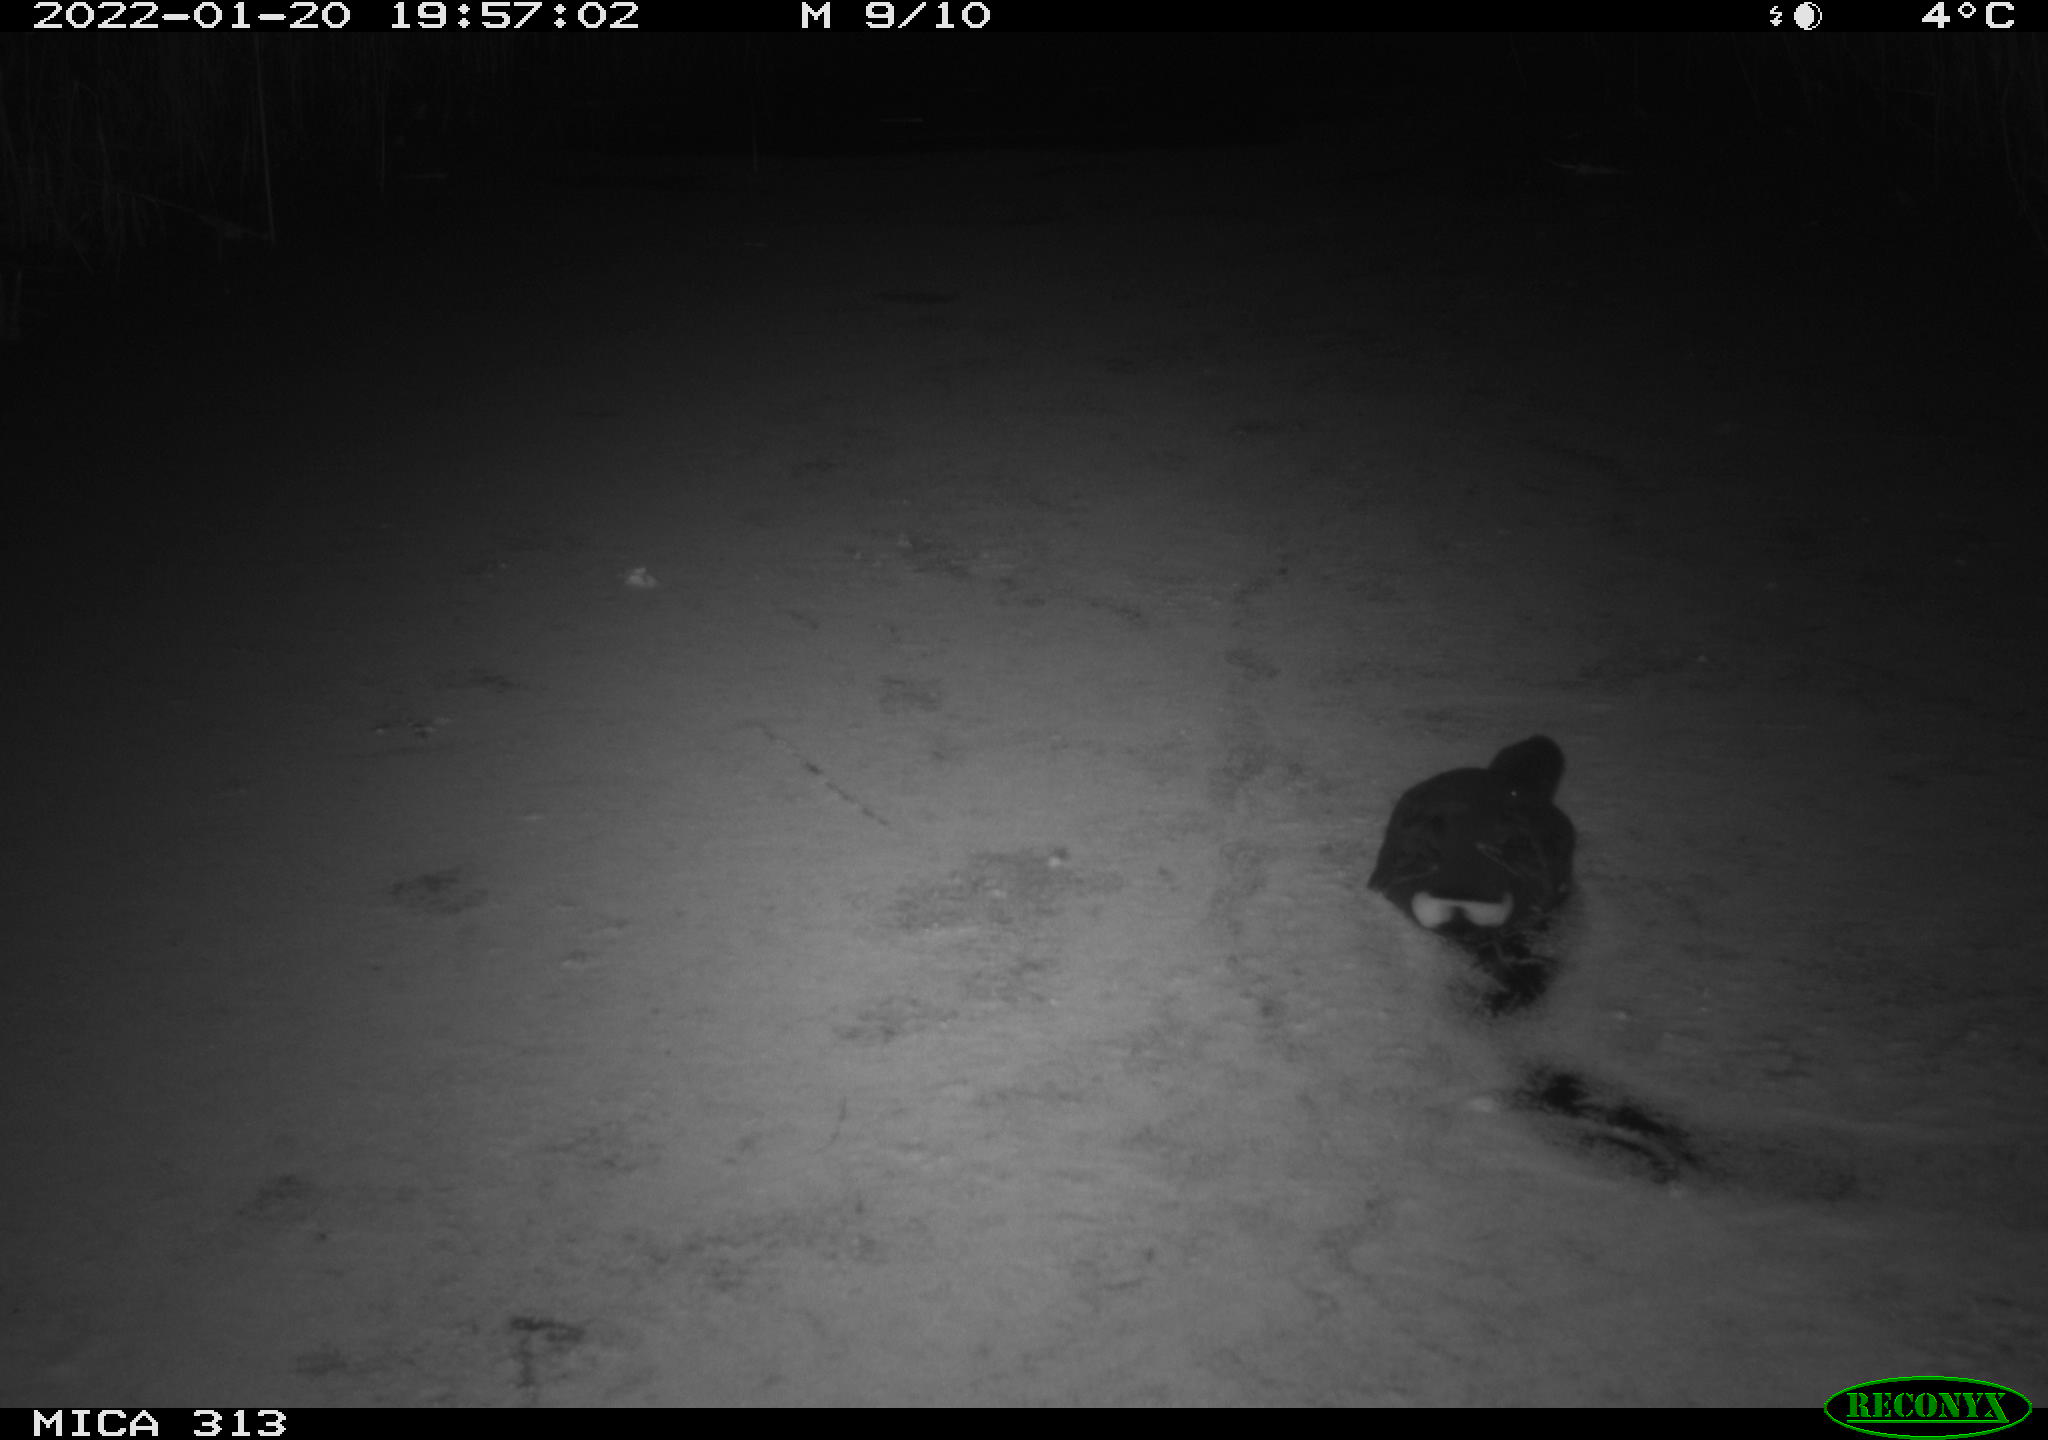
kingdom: Animalia
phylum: Chordata
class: Aves
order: Gruiformes
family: Rallidae
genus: Fulica
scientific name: Fulica atra
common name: Eurasian coot
